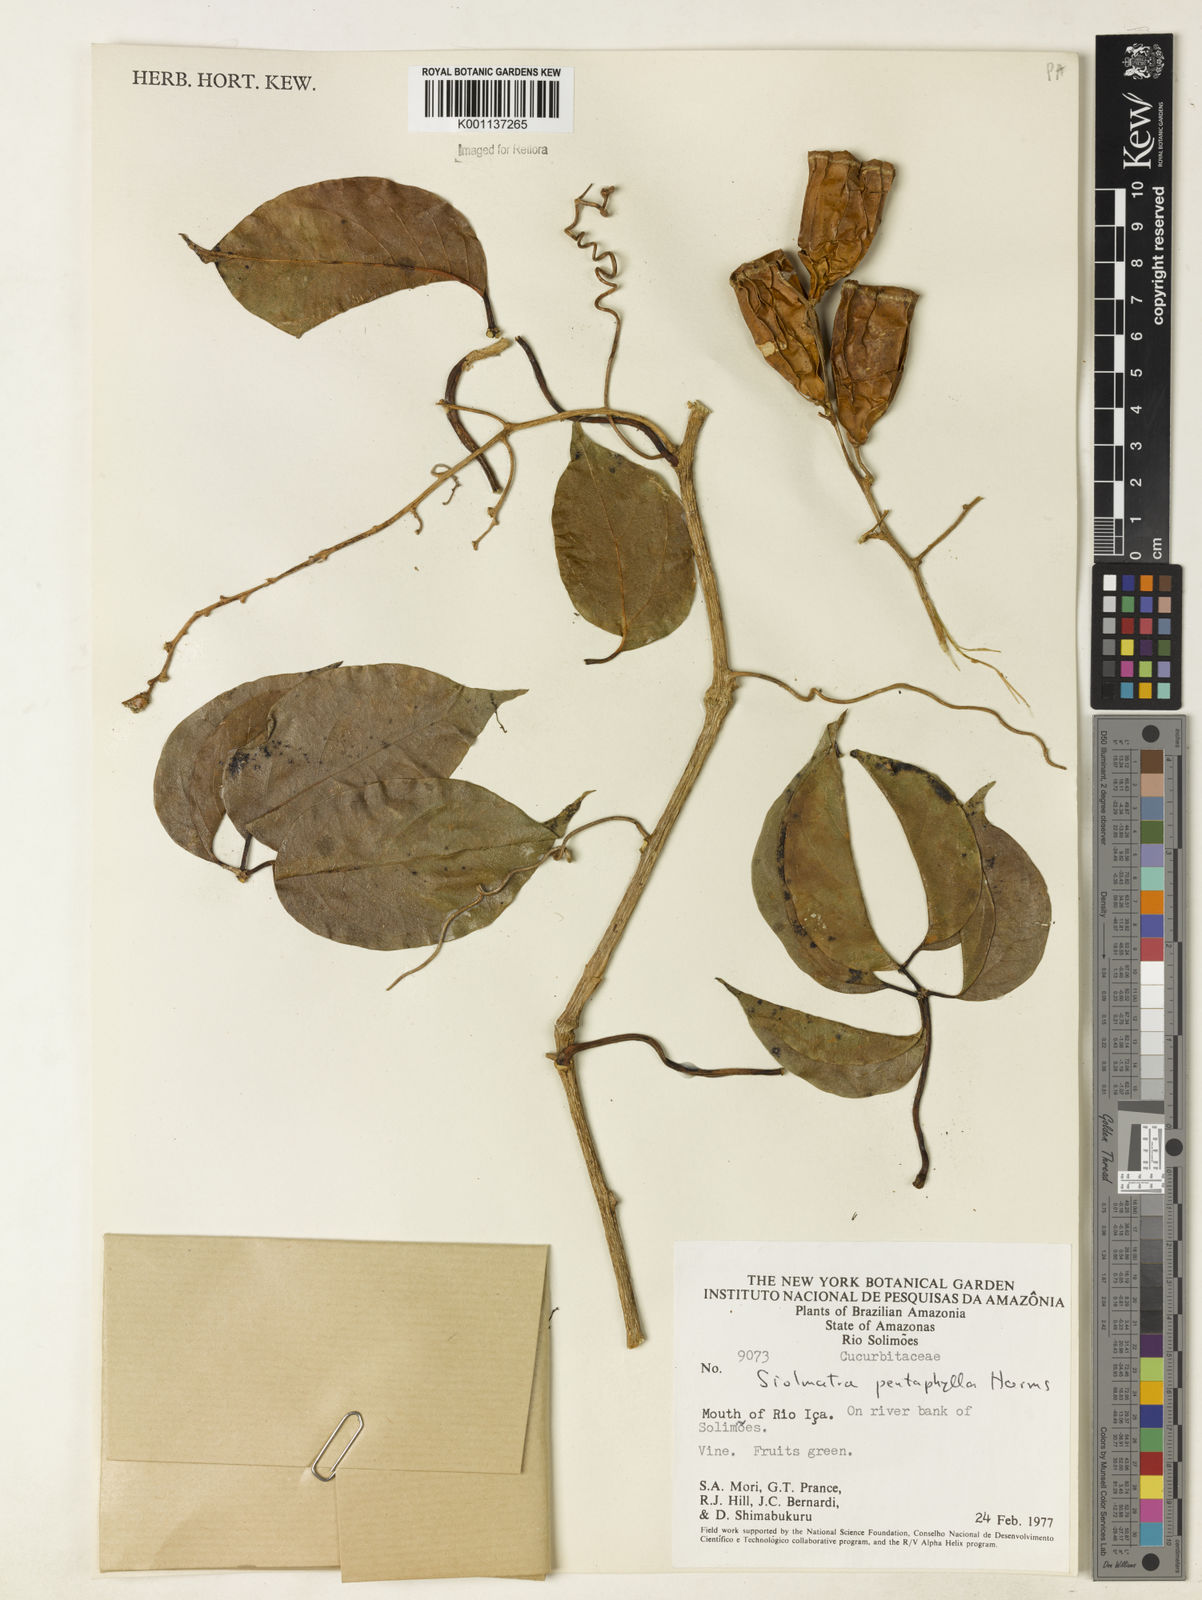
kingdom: Plantae
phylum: Tracheophyta
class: Magnoliopsida
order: Cucurbitales
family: Cucurbitaceae
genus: Siolmatra
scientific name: Siolmatra pentaphylla
